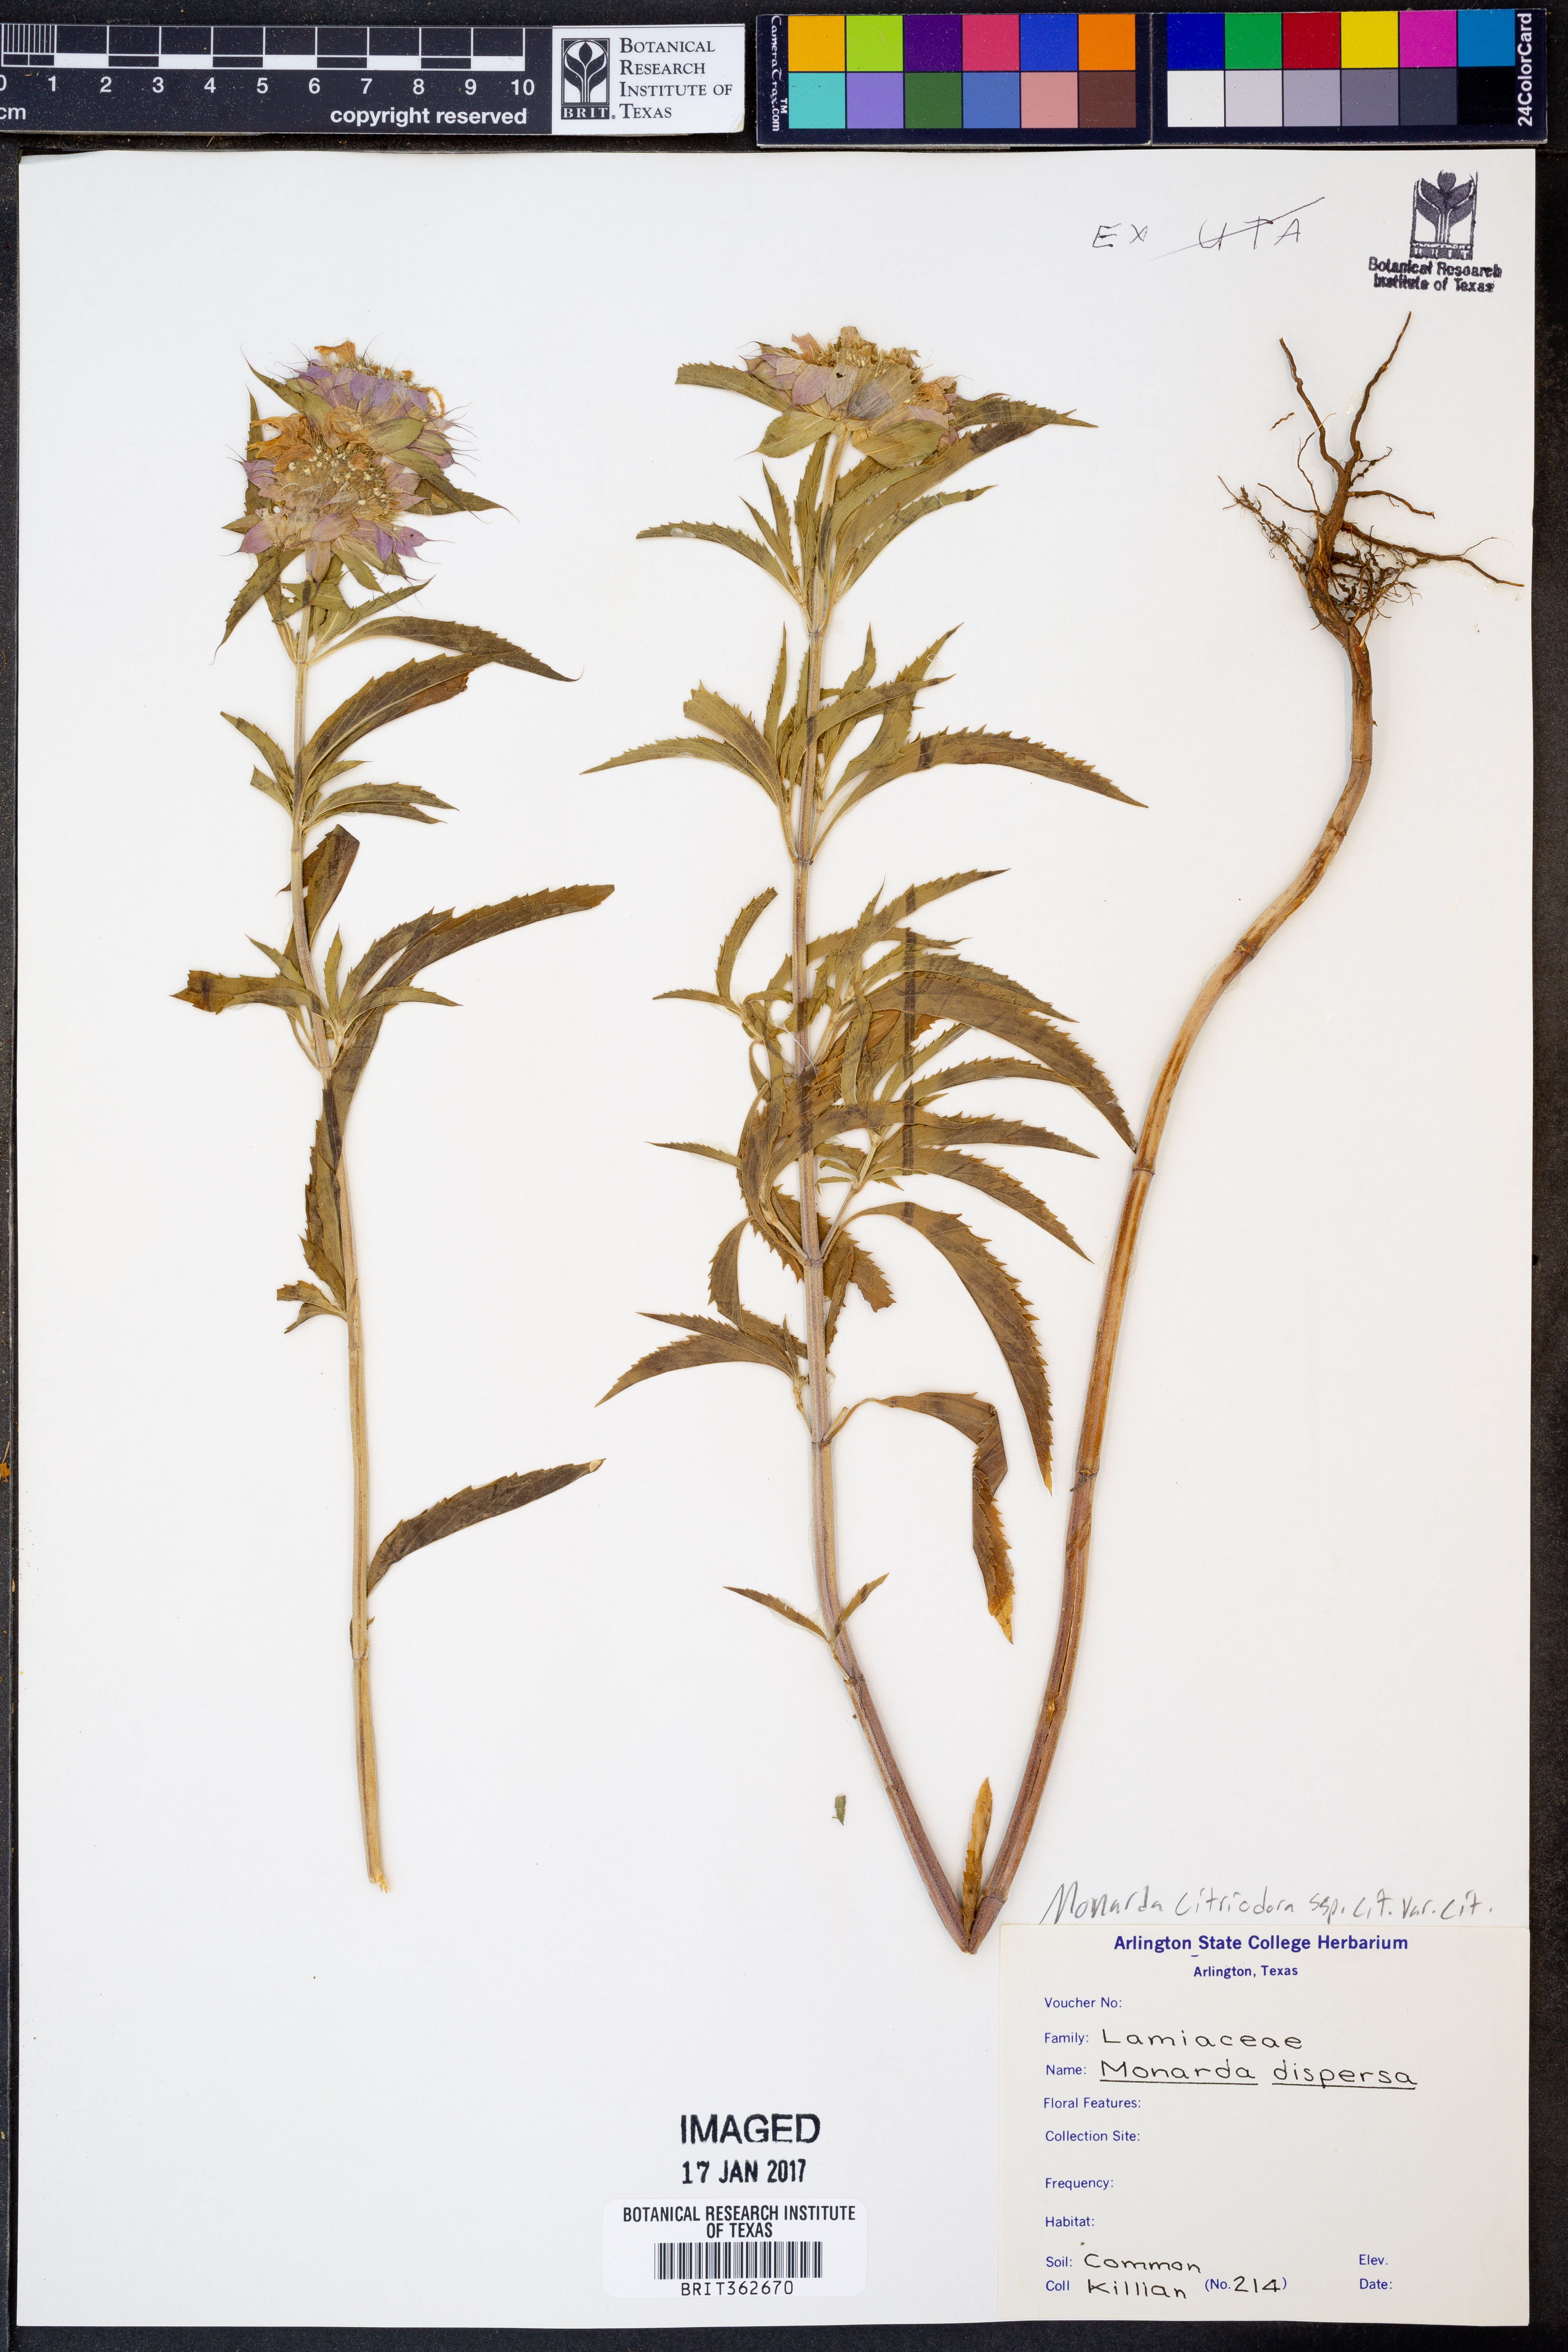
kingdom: Plantae
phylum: Tracheophyta
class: Magnoliopsida
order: Lamiales
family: Lamiaceae
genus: Monarda
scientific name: Monarda citriodora
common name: Lemon beebalm
